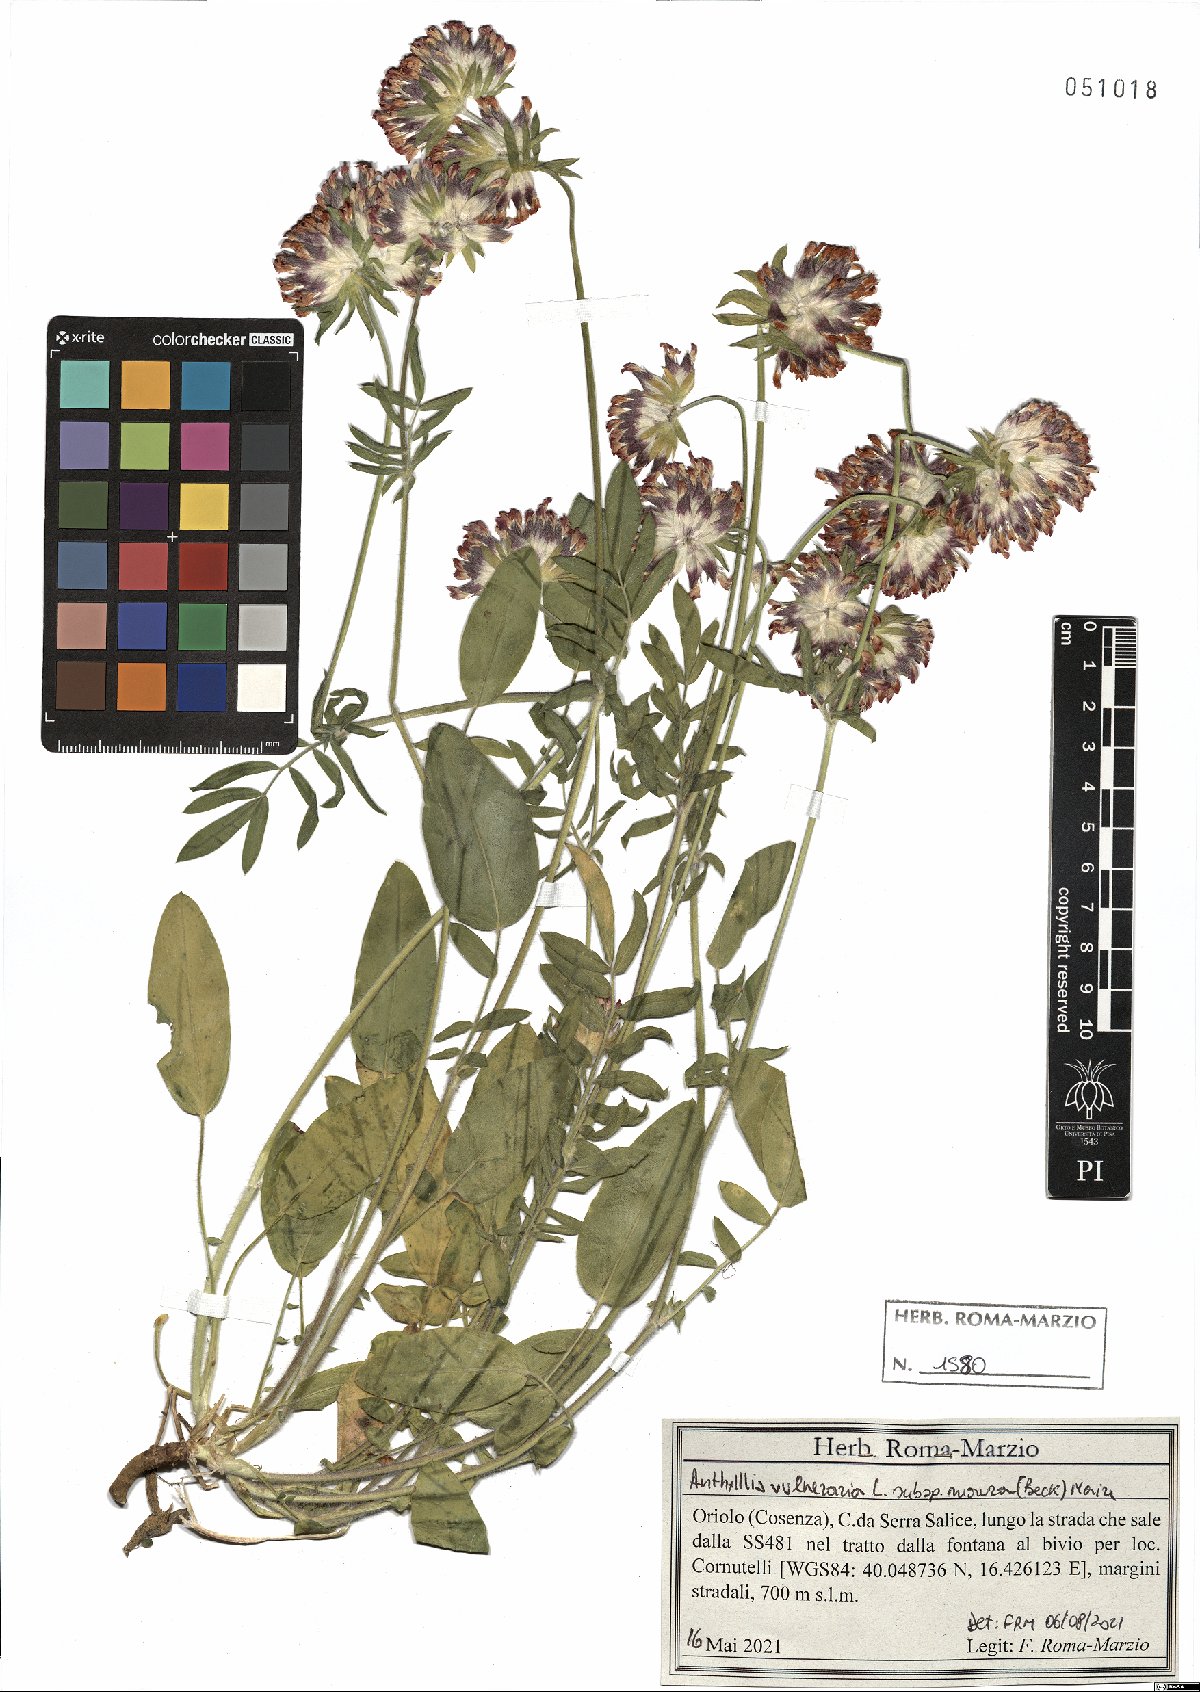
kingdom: Plantae
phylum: Tracheophyta
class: Magnoliopsida
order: Fabales
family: Fabaceae
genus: Anthyllis
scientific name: Anthyllis vulneraria
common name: Kidney vetch
